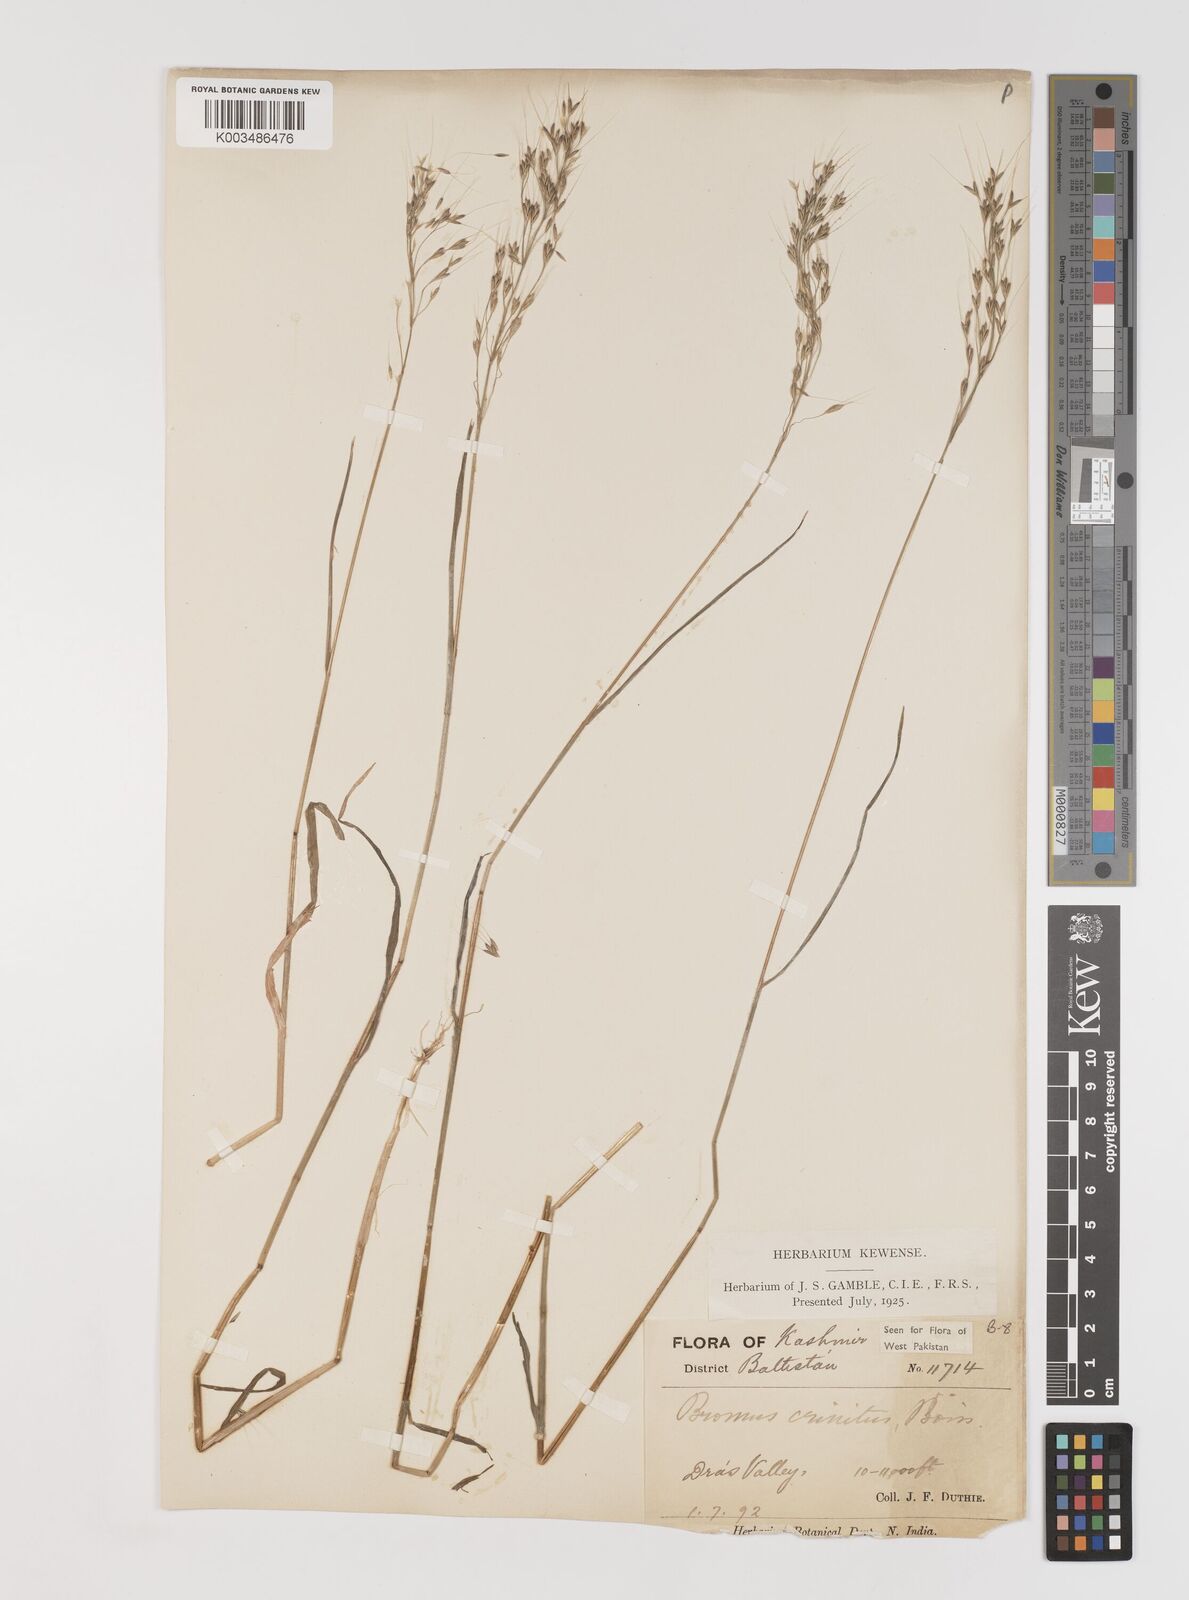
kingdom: Plantae
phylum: Tracheophyta
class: Liliopsida
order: Poales
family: Poaceae
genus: Bromus
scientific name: Bromus gracillimus
